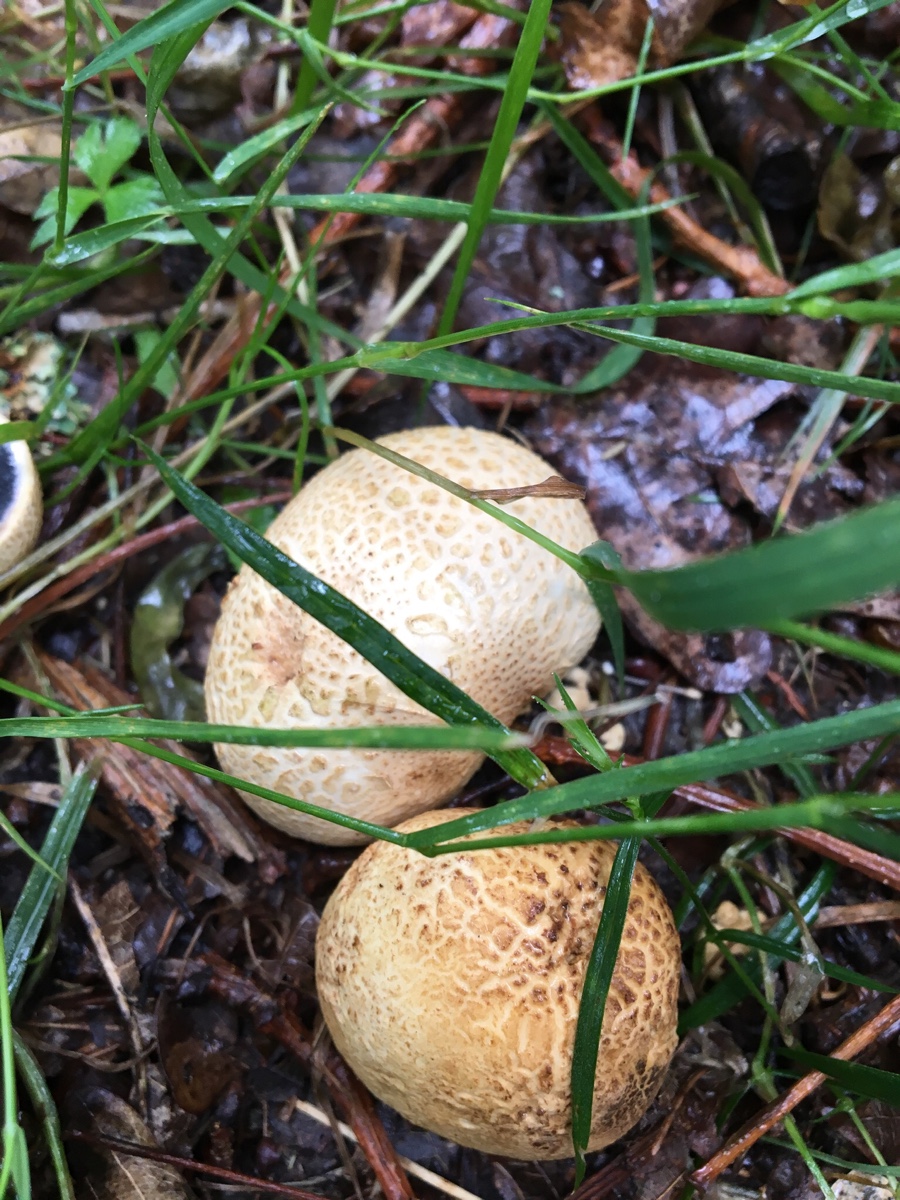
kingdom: Fungi
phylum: Basidiomycota
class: Agaricomycetes
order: Boletales
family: Sclerodermataceae
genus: Scleroderma
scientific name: Scleroderma citrinum
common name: almindelig bruskbold
